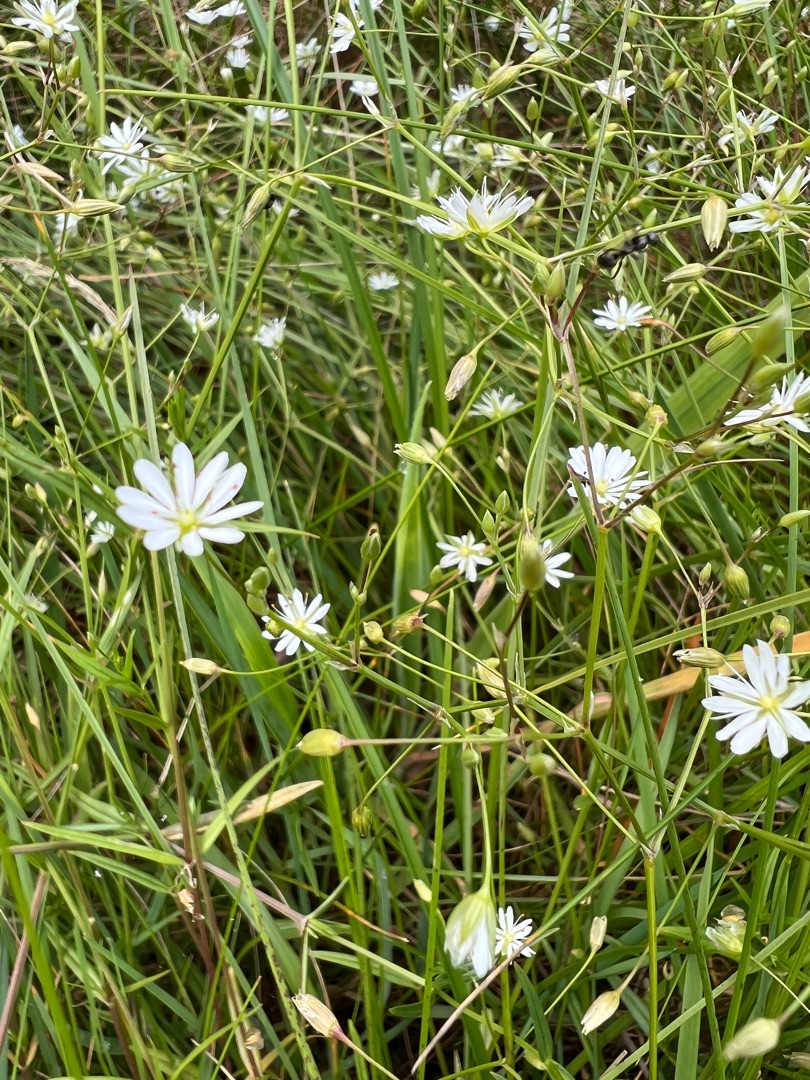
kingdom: Plantae
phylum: Tracheophyta
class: Magnoliopsida
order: Caryophyllales
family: Caryophyllaceae
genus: Stellaria
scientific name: Stellaria graminea
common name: Græsbladet fladstjerne
